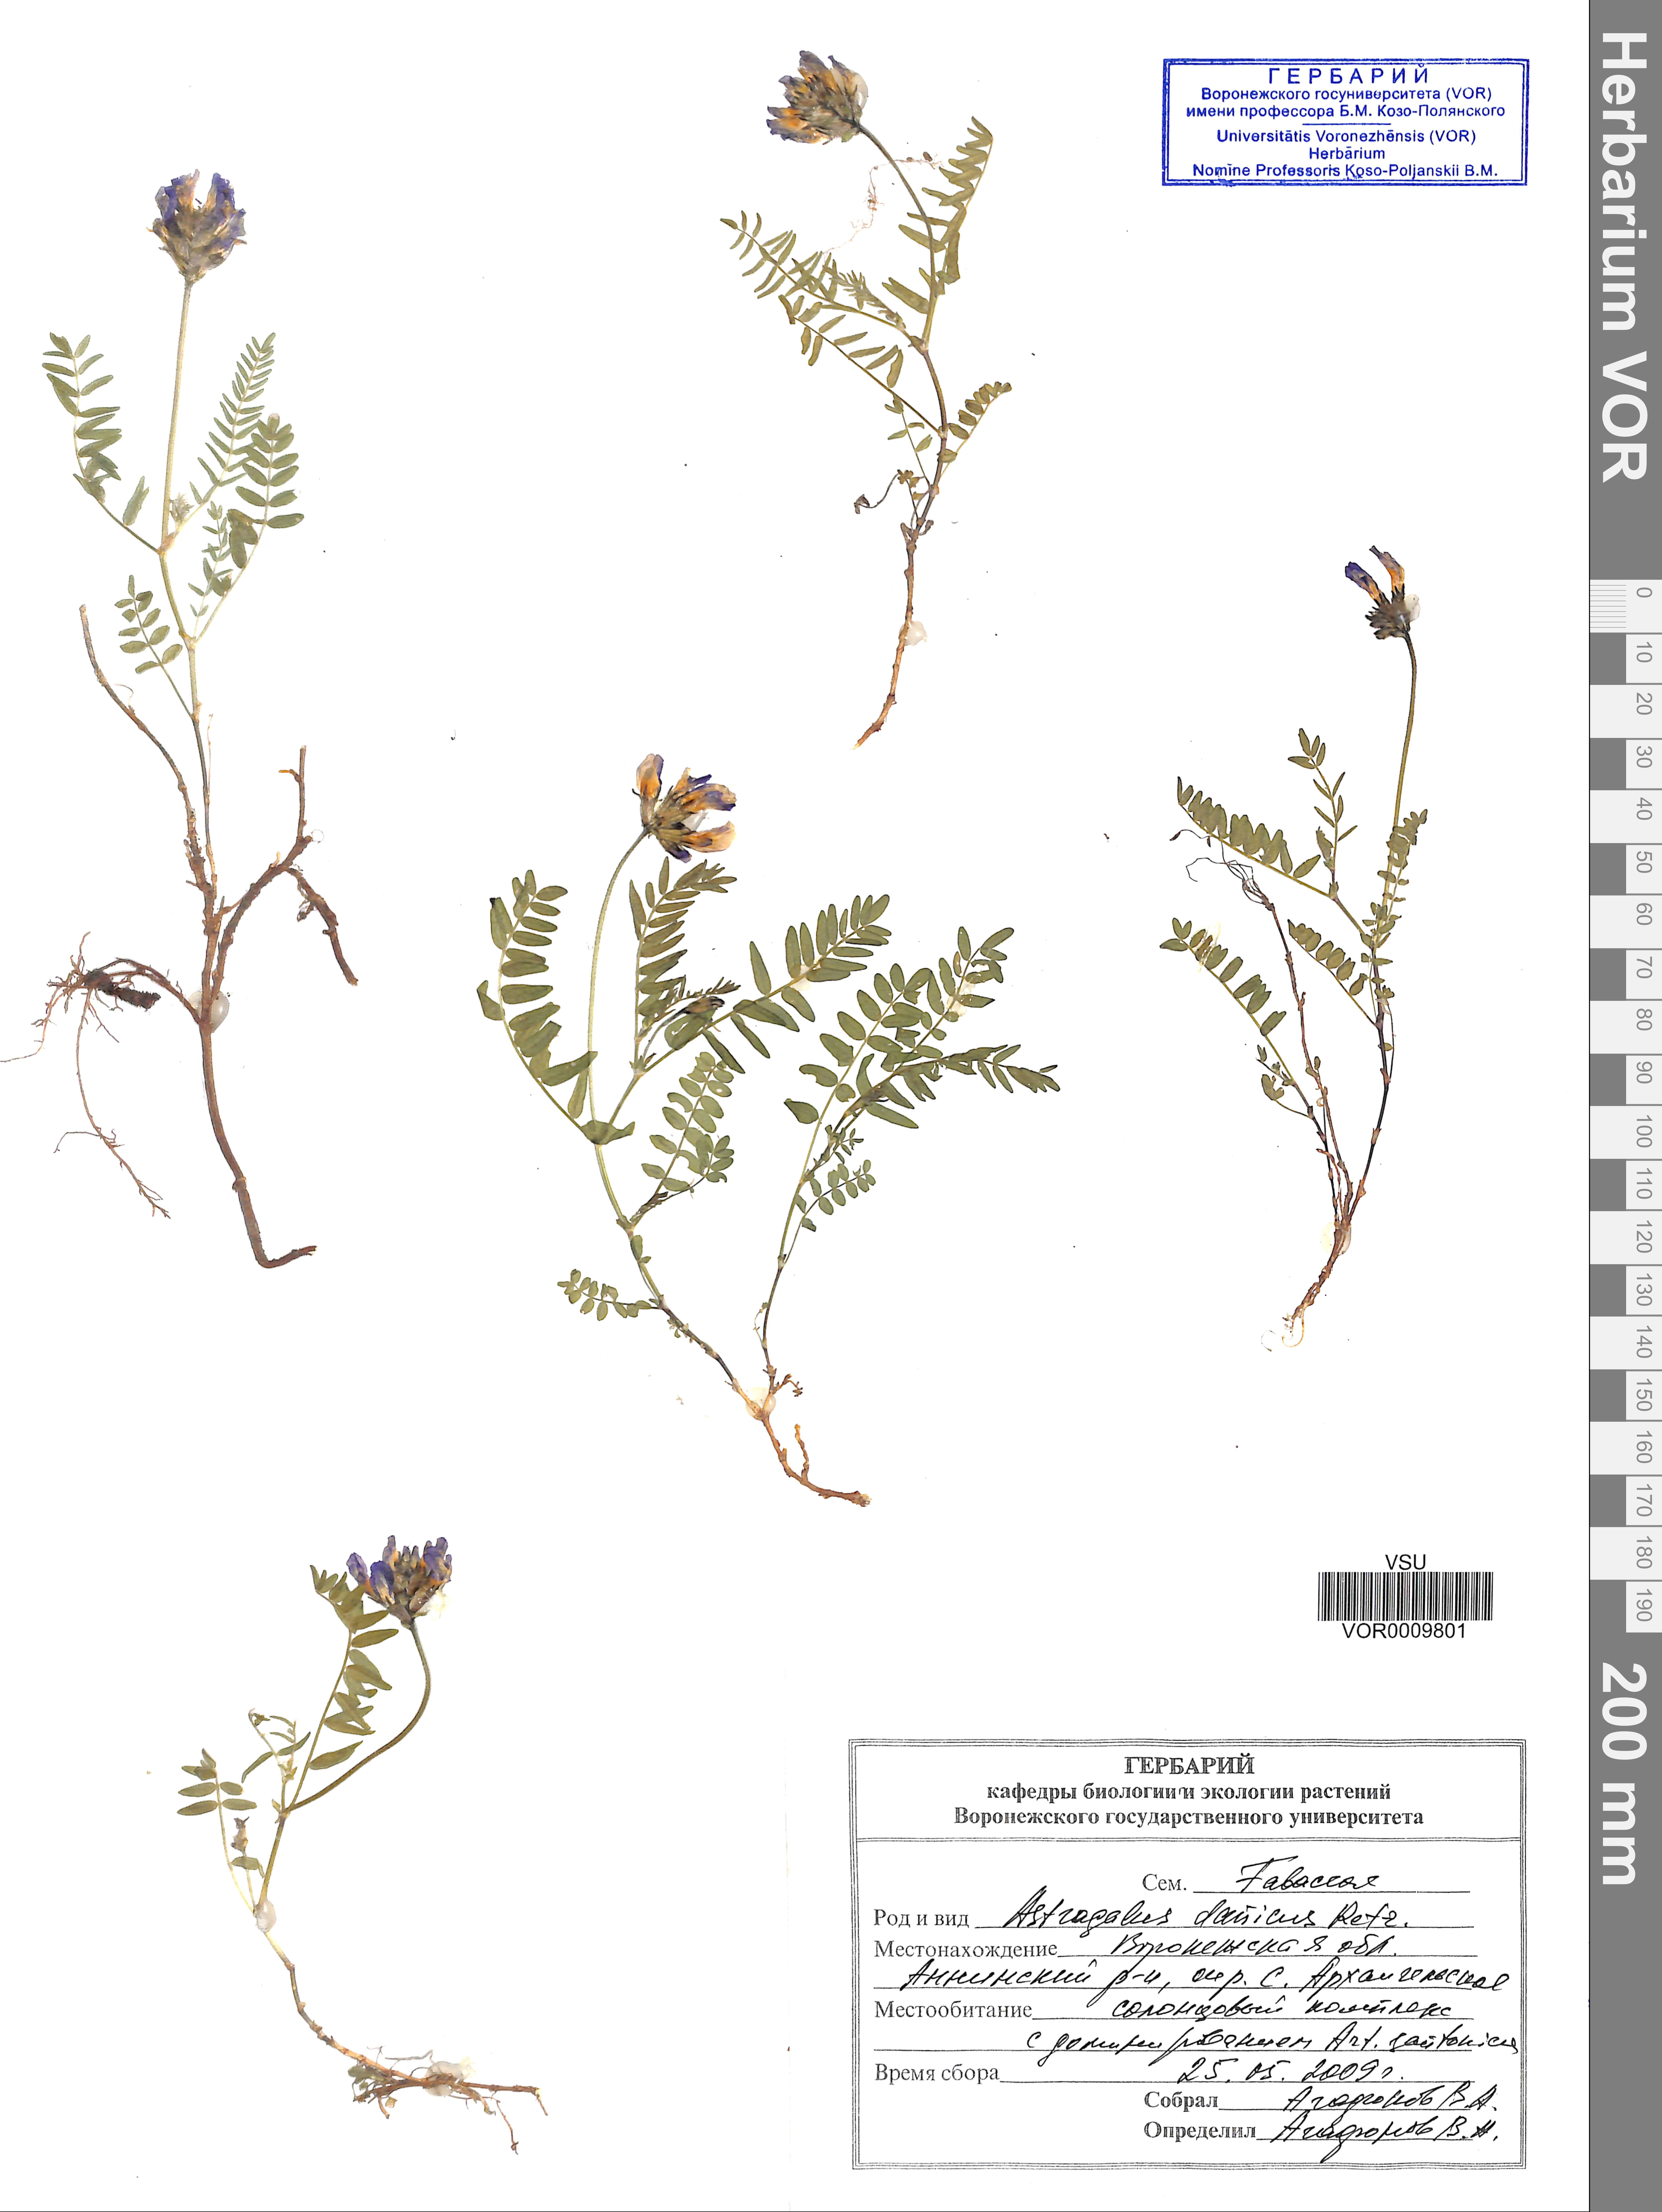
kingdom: Plantae
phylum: Tracheophyta
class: Magnoliopsida
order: Fabales
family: Fabaceae
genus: Astragalus
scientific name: Astragalus danicus
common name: Purple milk-vetch
